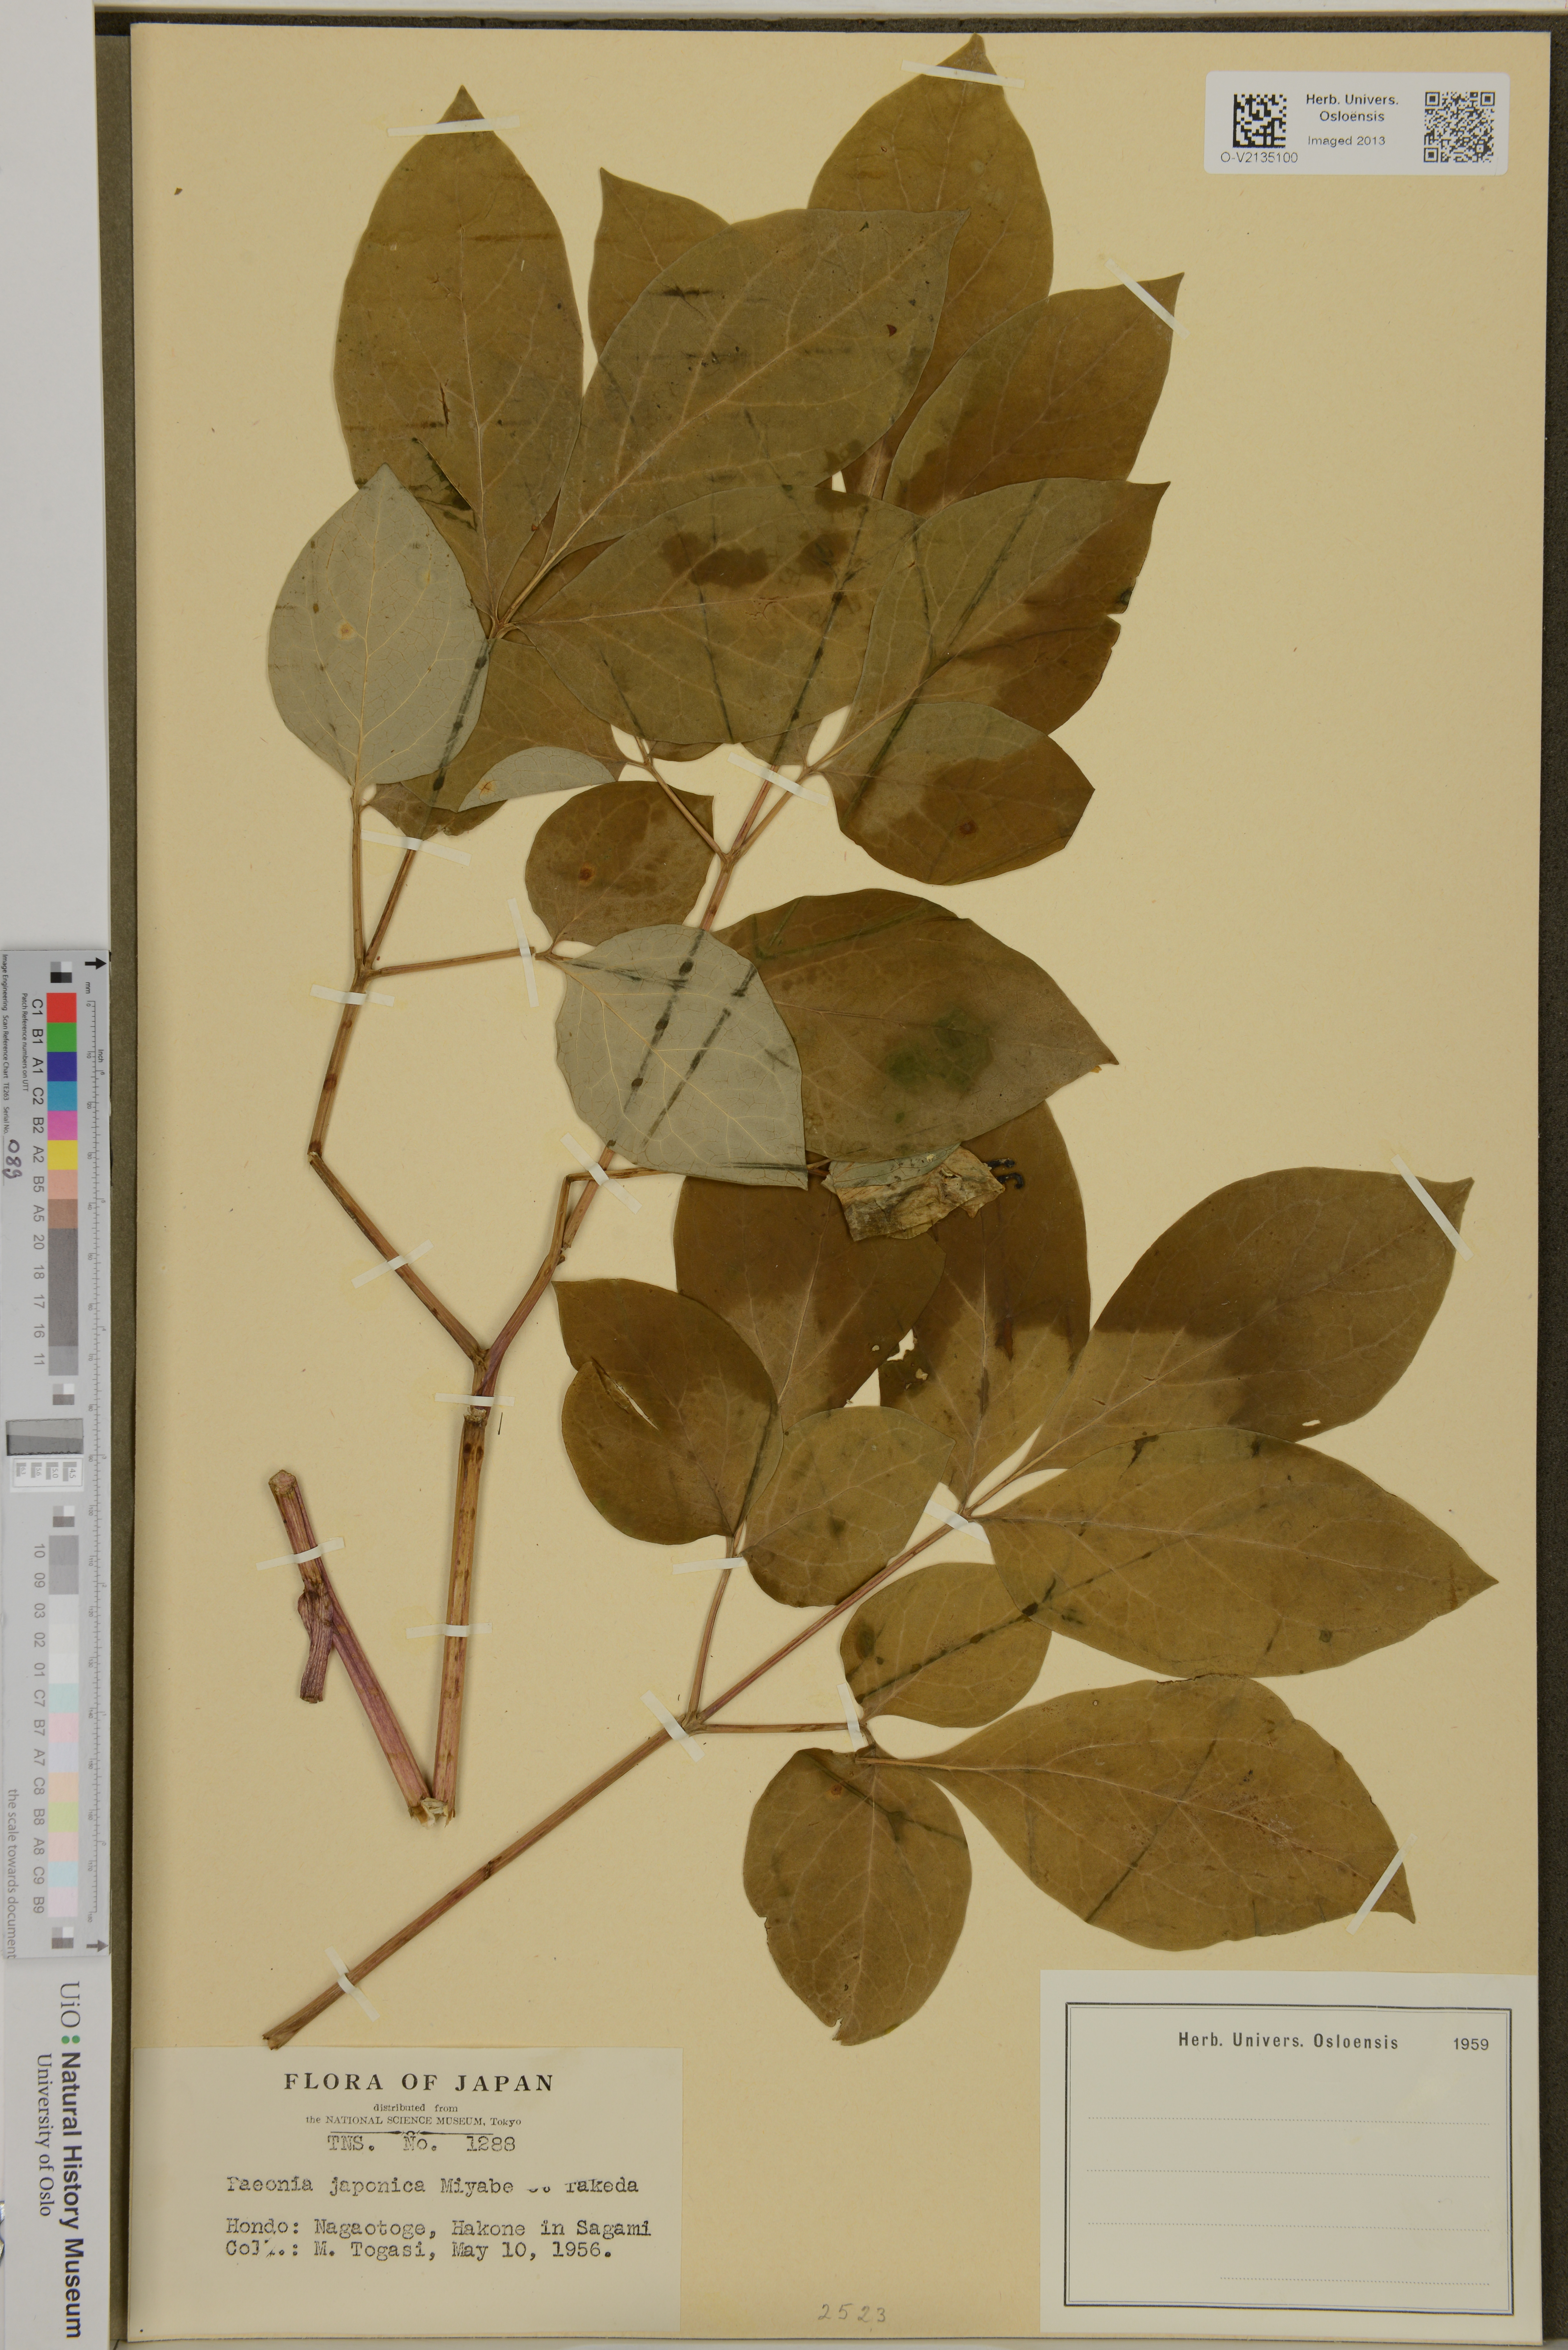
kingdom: Plantae
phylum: Tracheophyta
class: Magnoliopsida
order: Saxifragales
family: Paeoniaceae
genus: Paeonia
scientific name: Paeonia obovata
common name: Chinese peony
